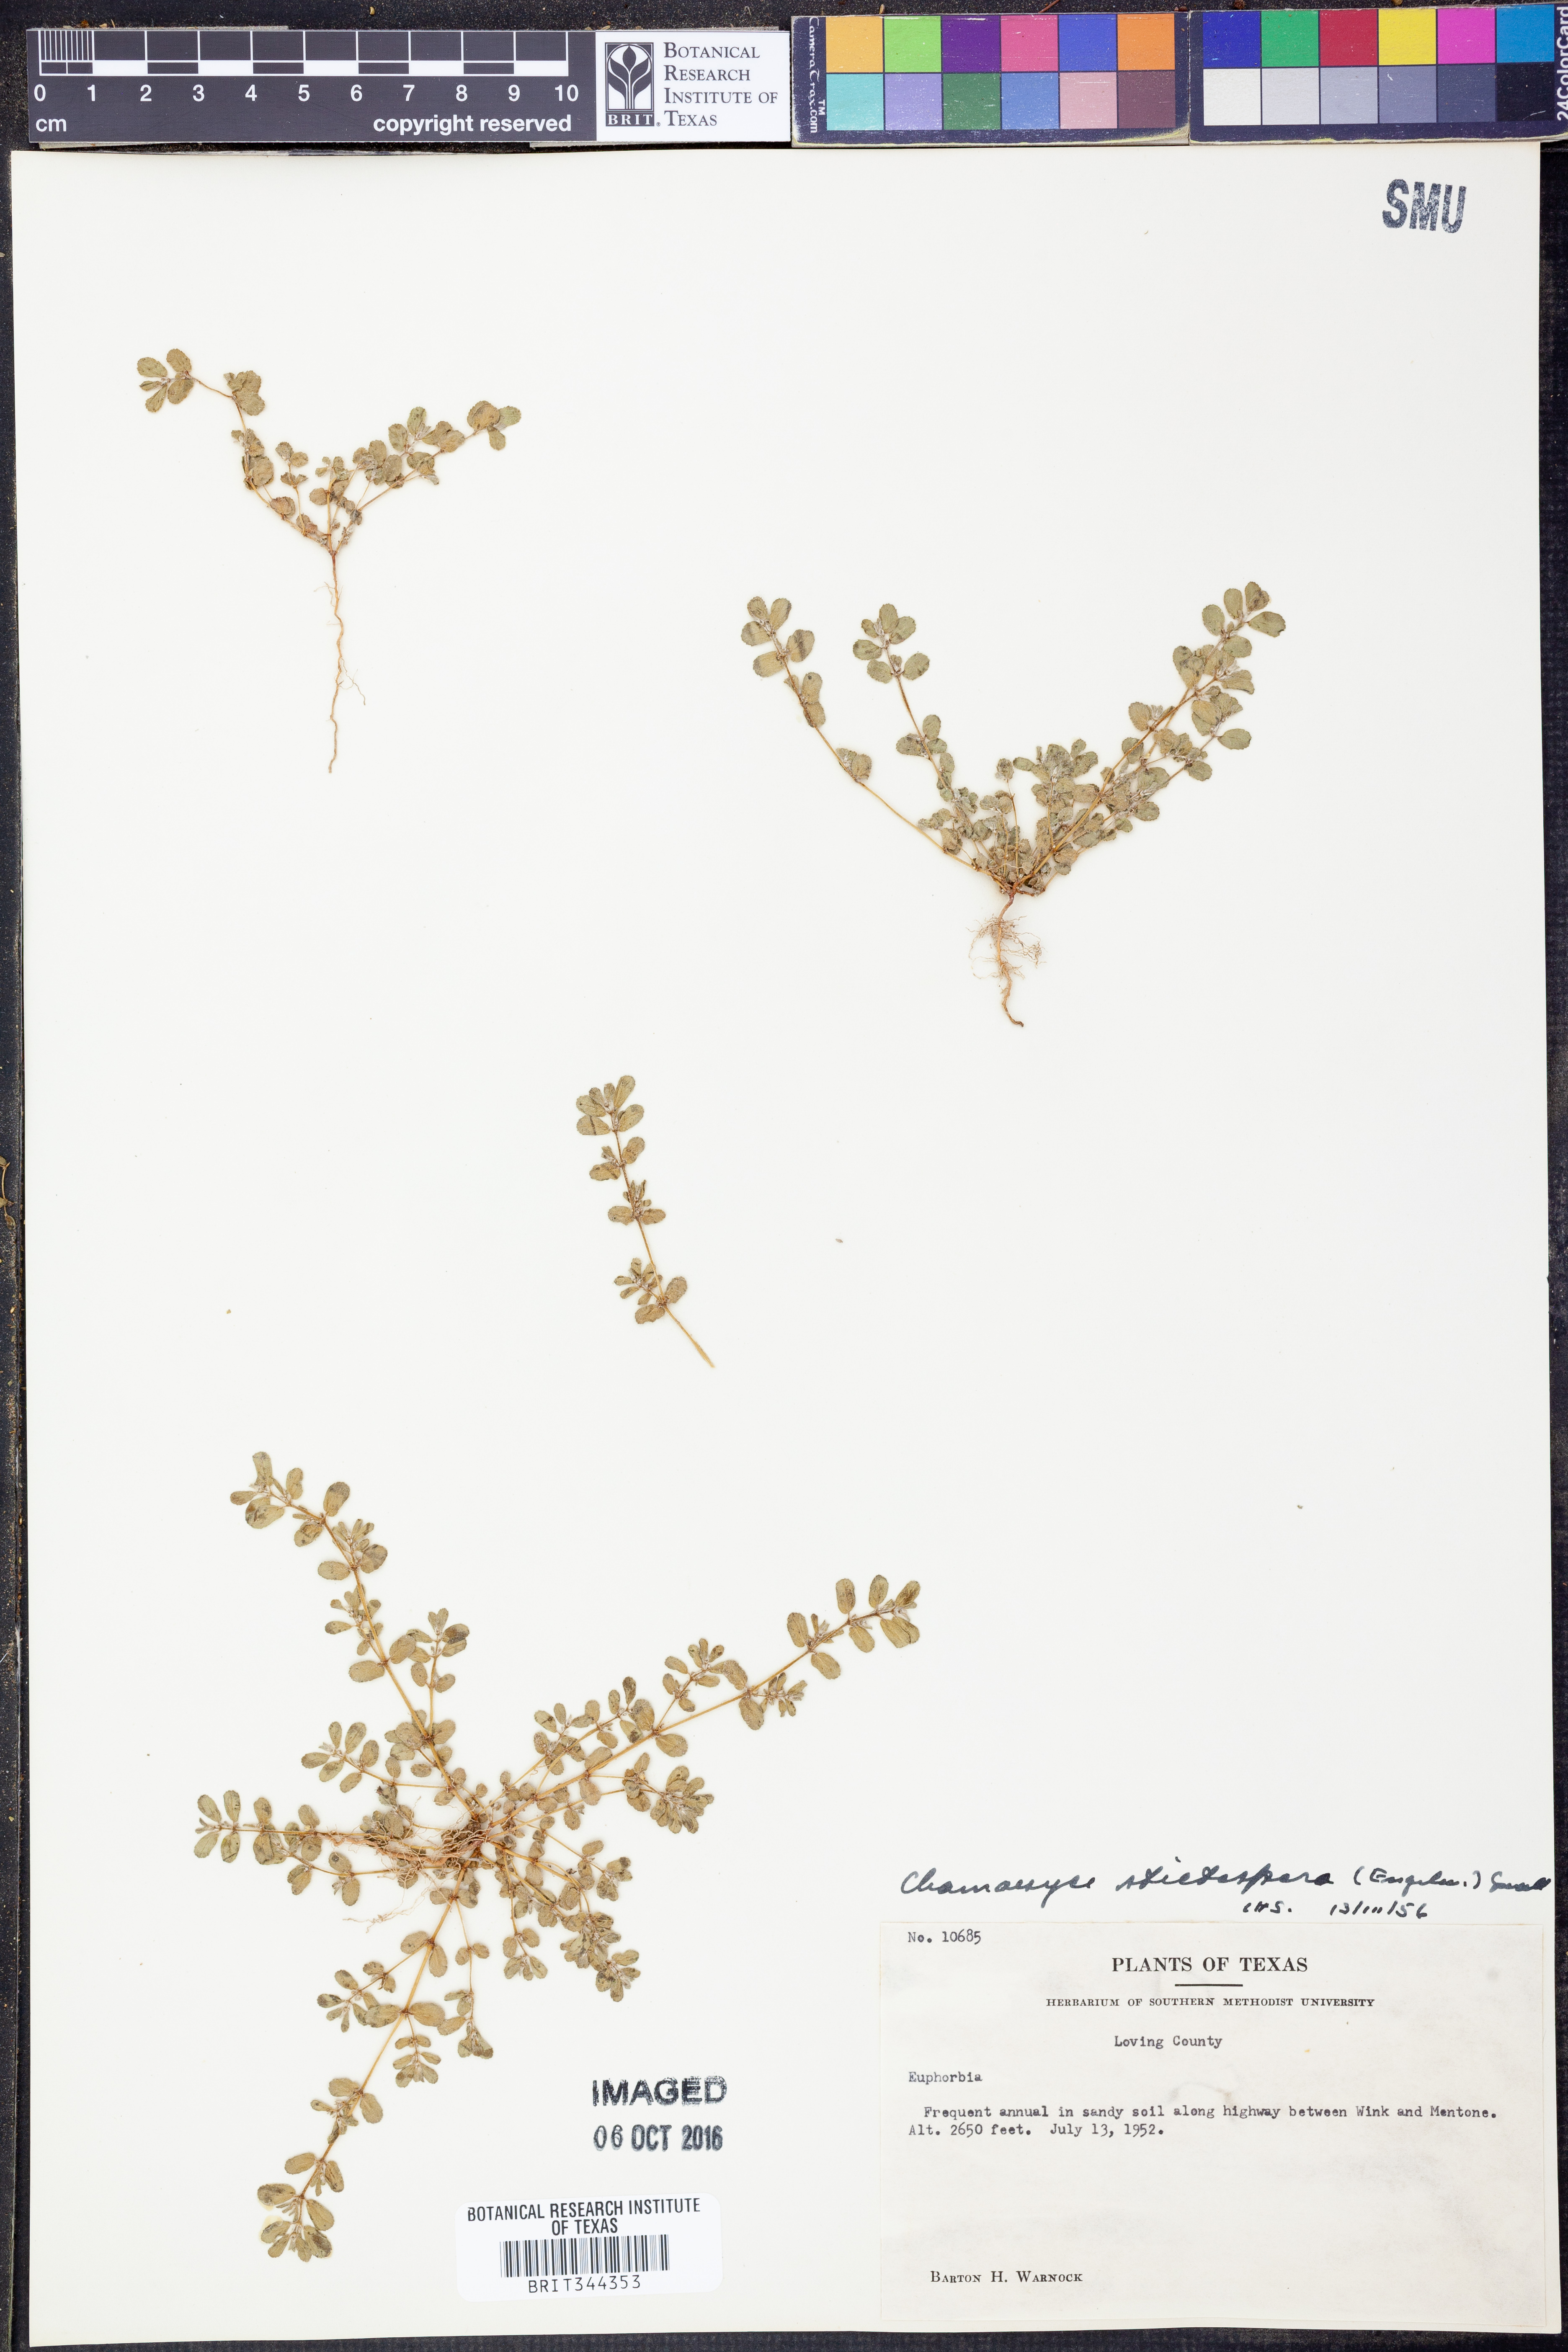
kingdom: Plantae
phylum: Tracheophyta
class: Magnoliopsida
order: Malpighiales
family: Euphorbiaceae
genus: Euphorbia
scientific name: Euphorbia stictospora
